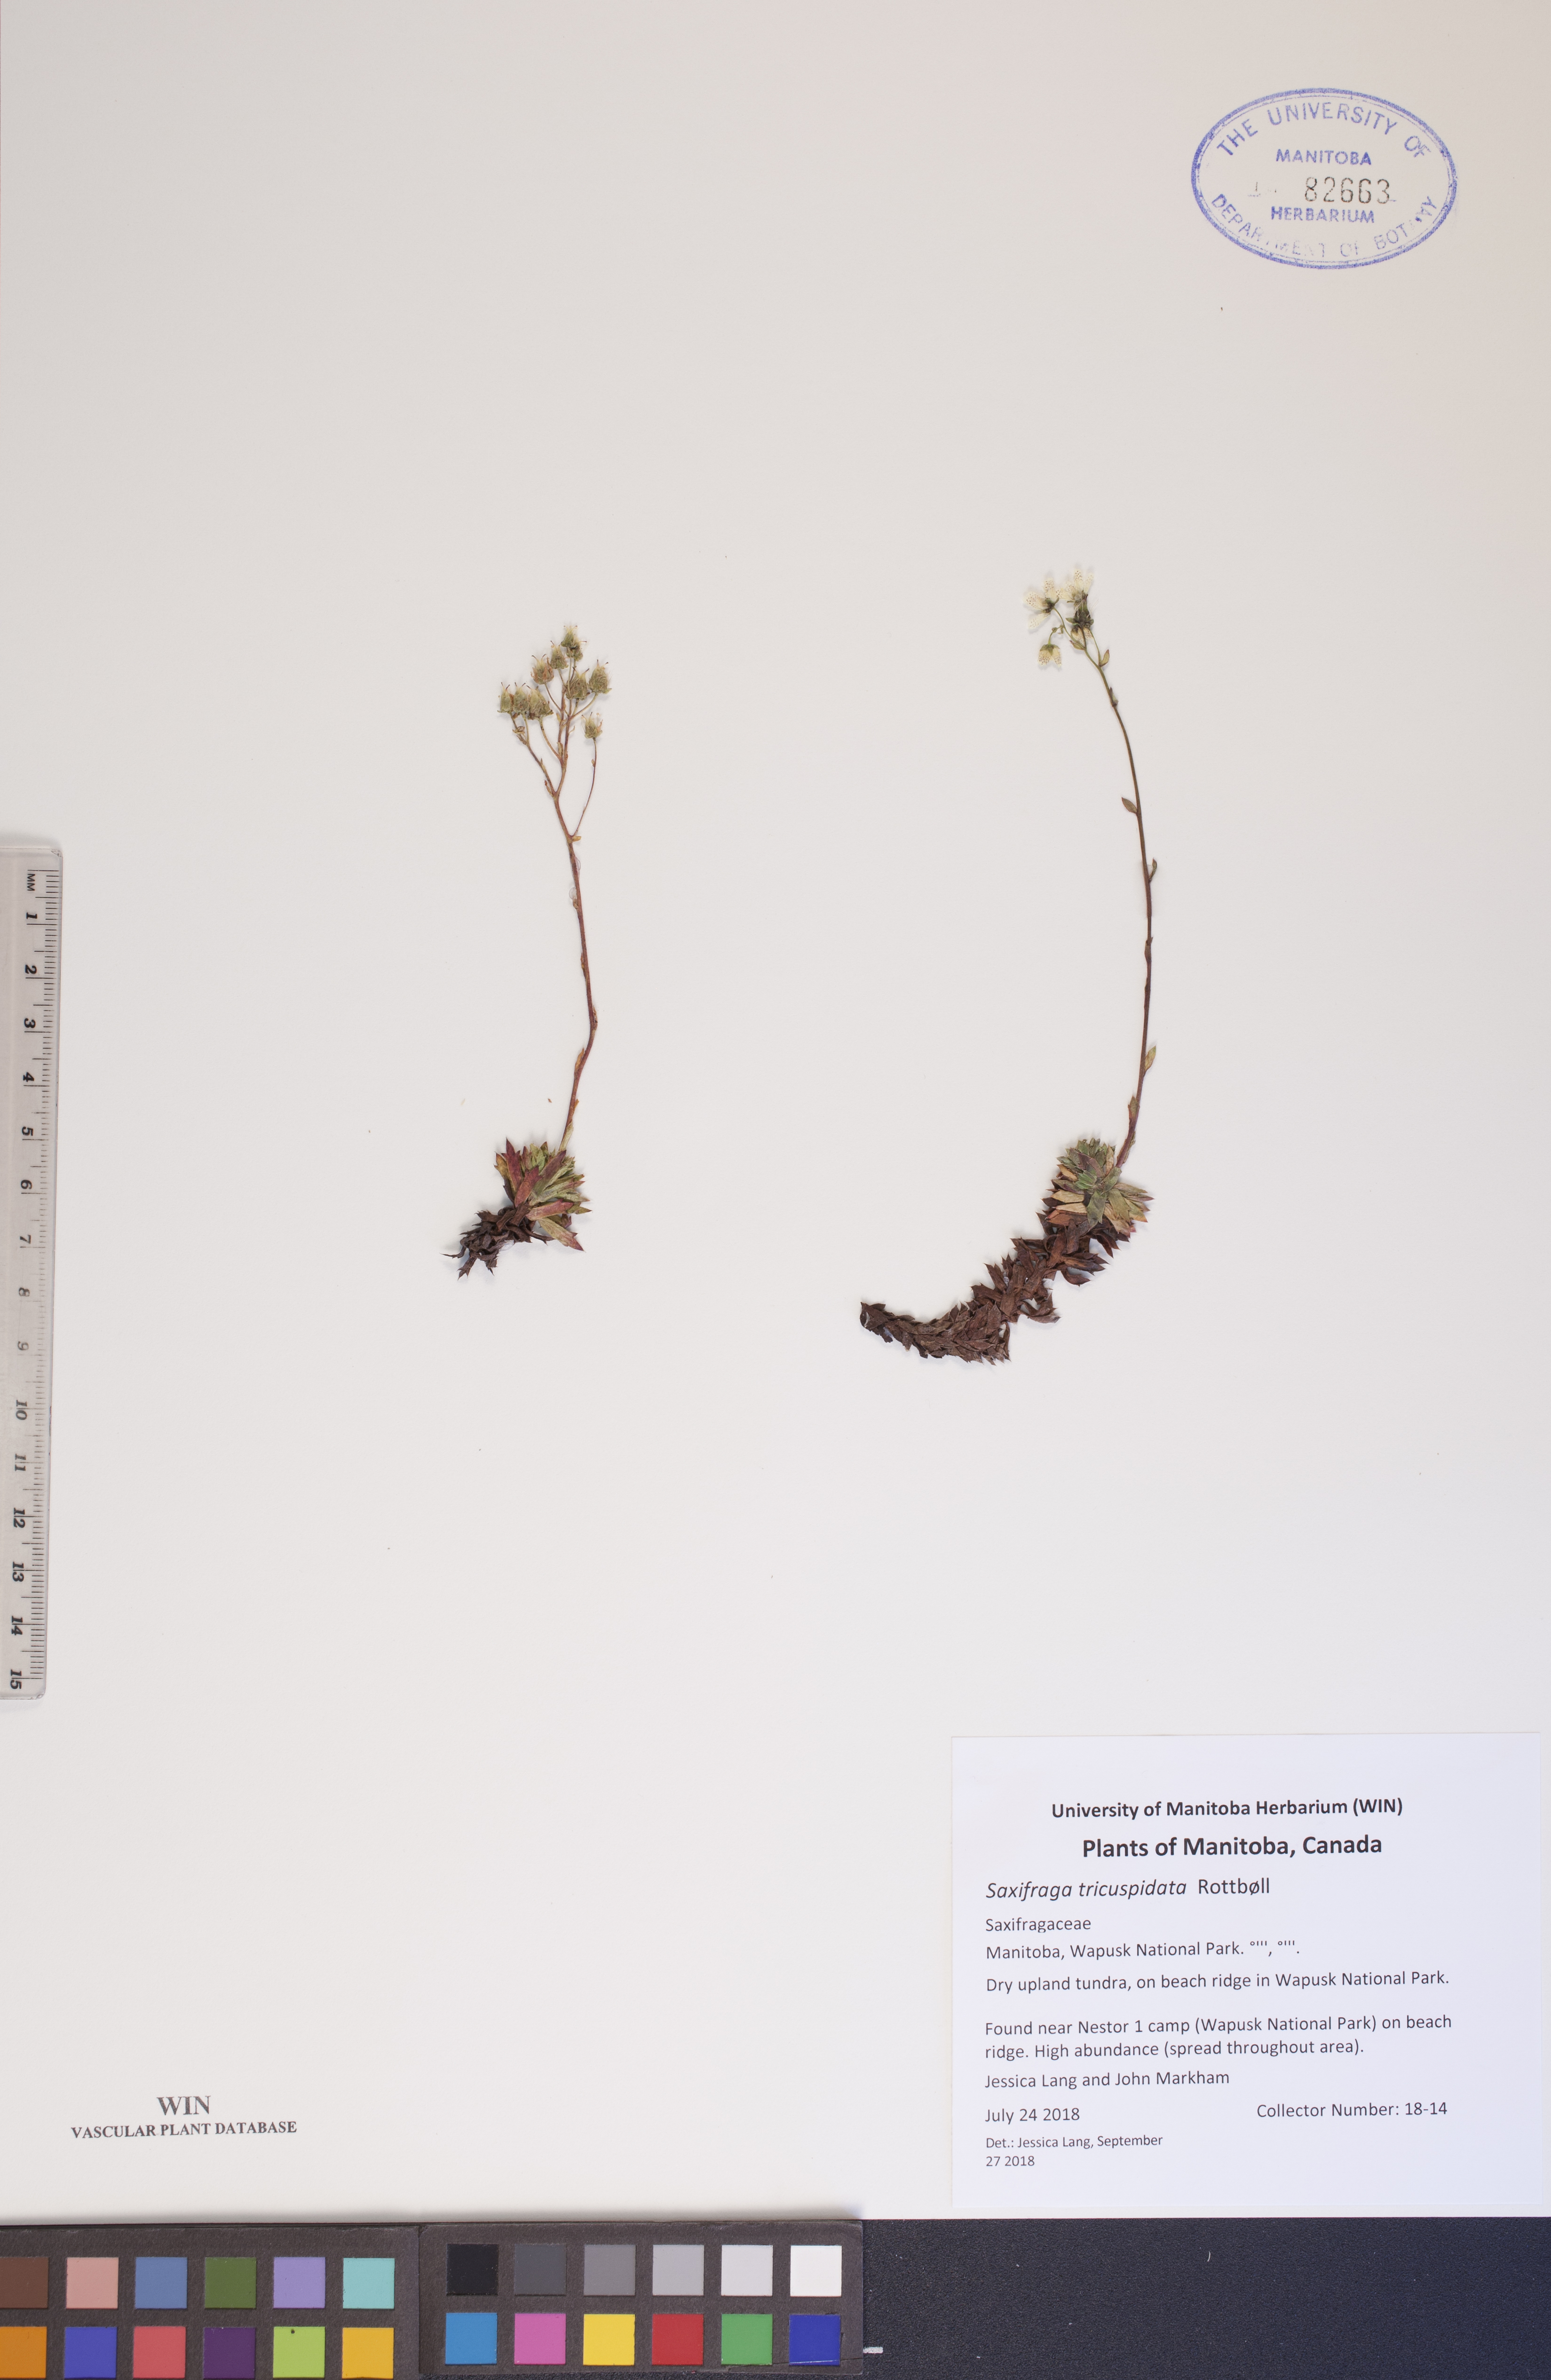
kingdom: Plantae
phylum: Tracheophyta
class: Magnoliopsida
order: Saxifragales
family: Saxifragaceae
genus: Saxifraga
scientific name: Saxifraga tricuspidata
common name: Prickly saxifrage
